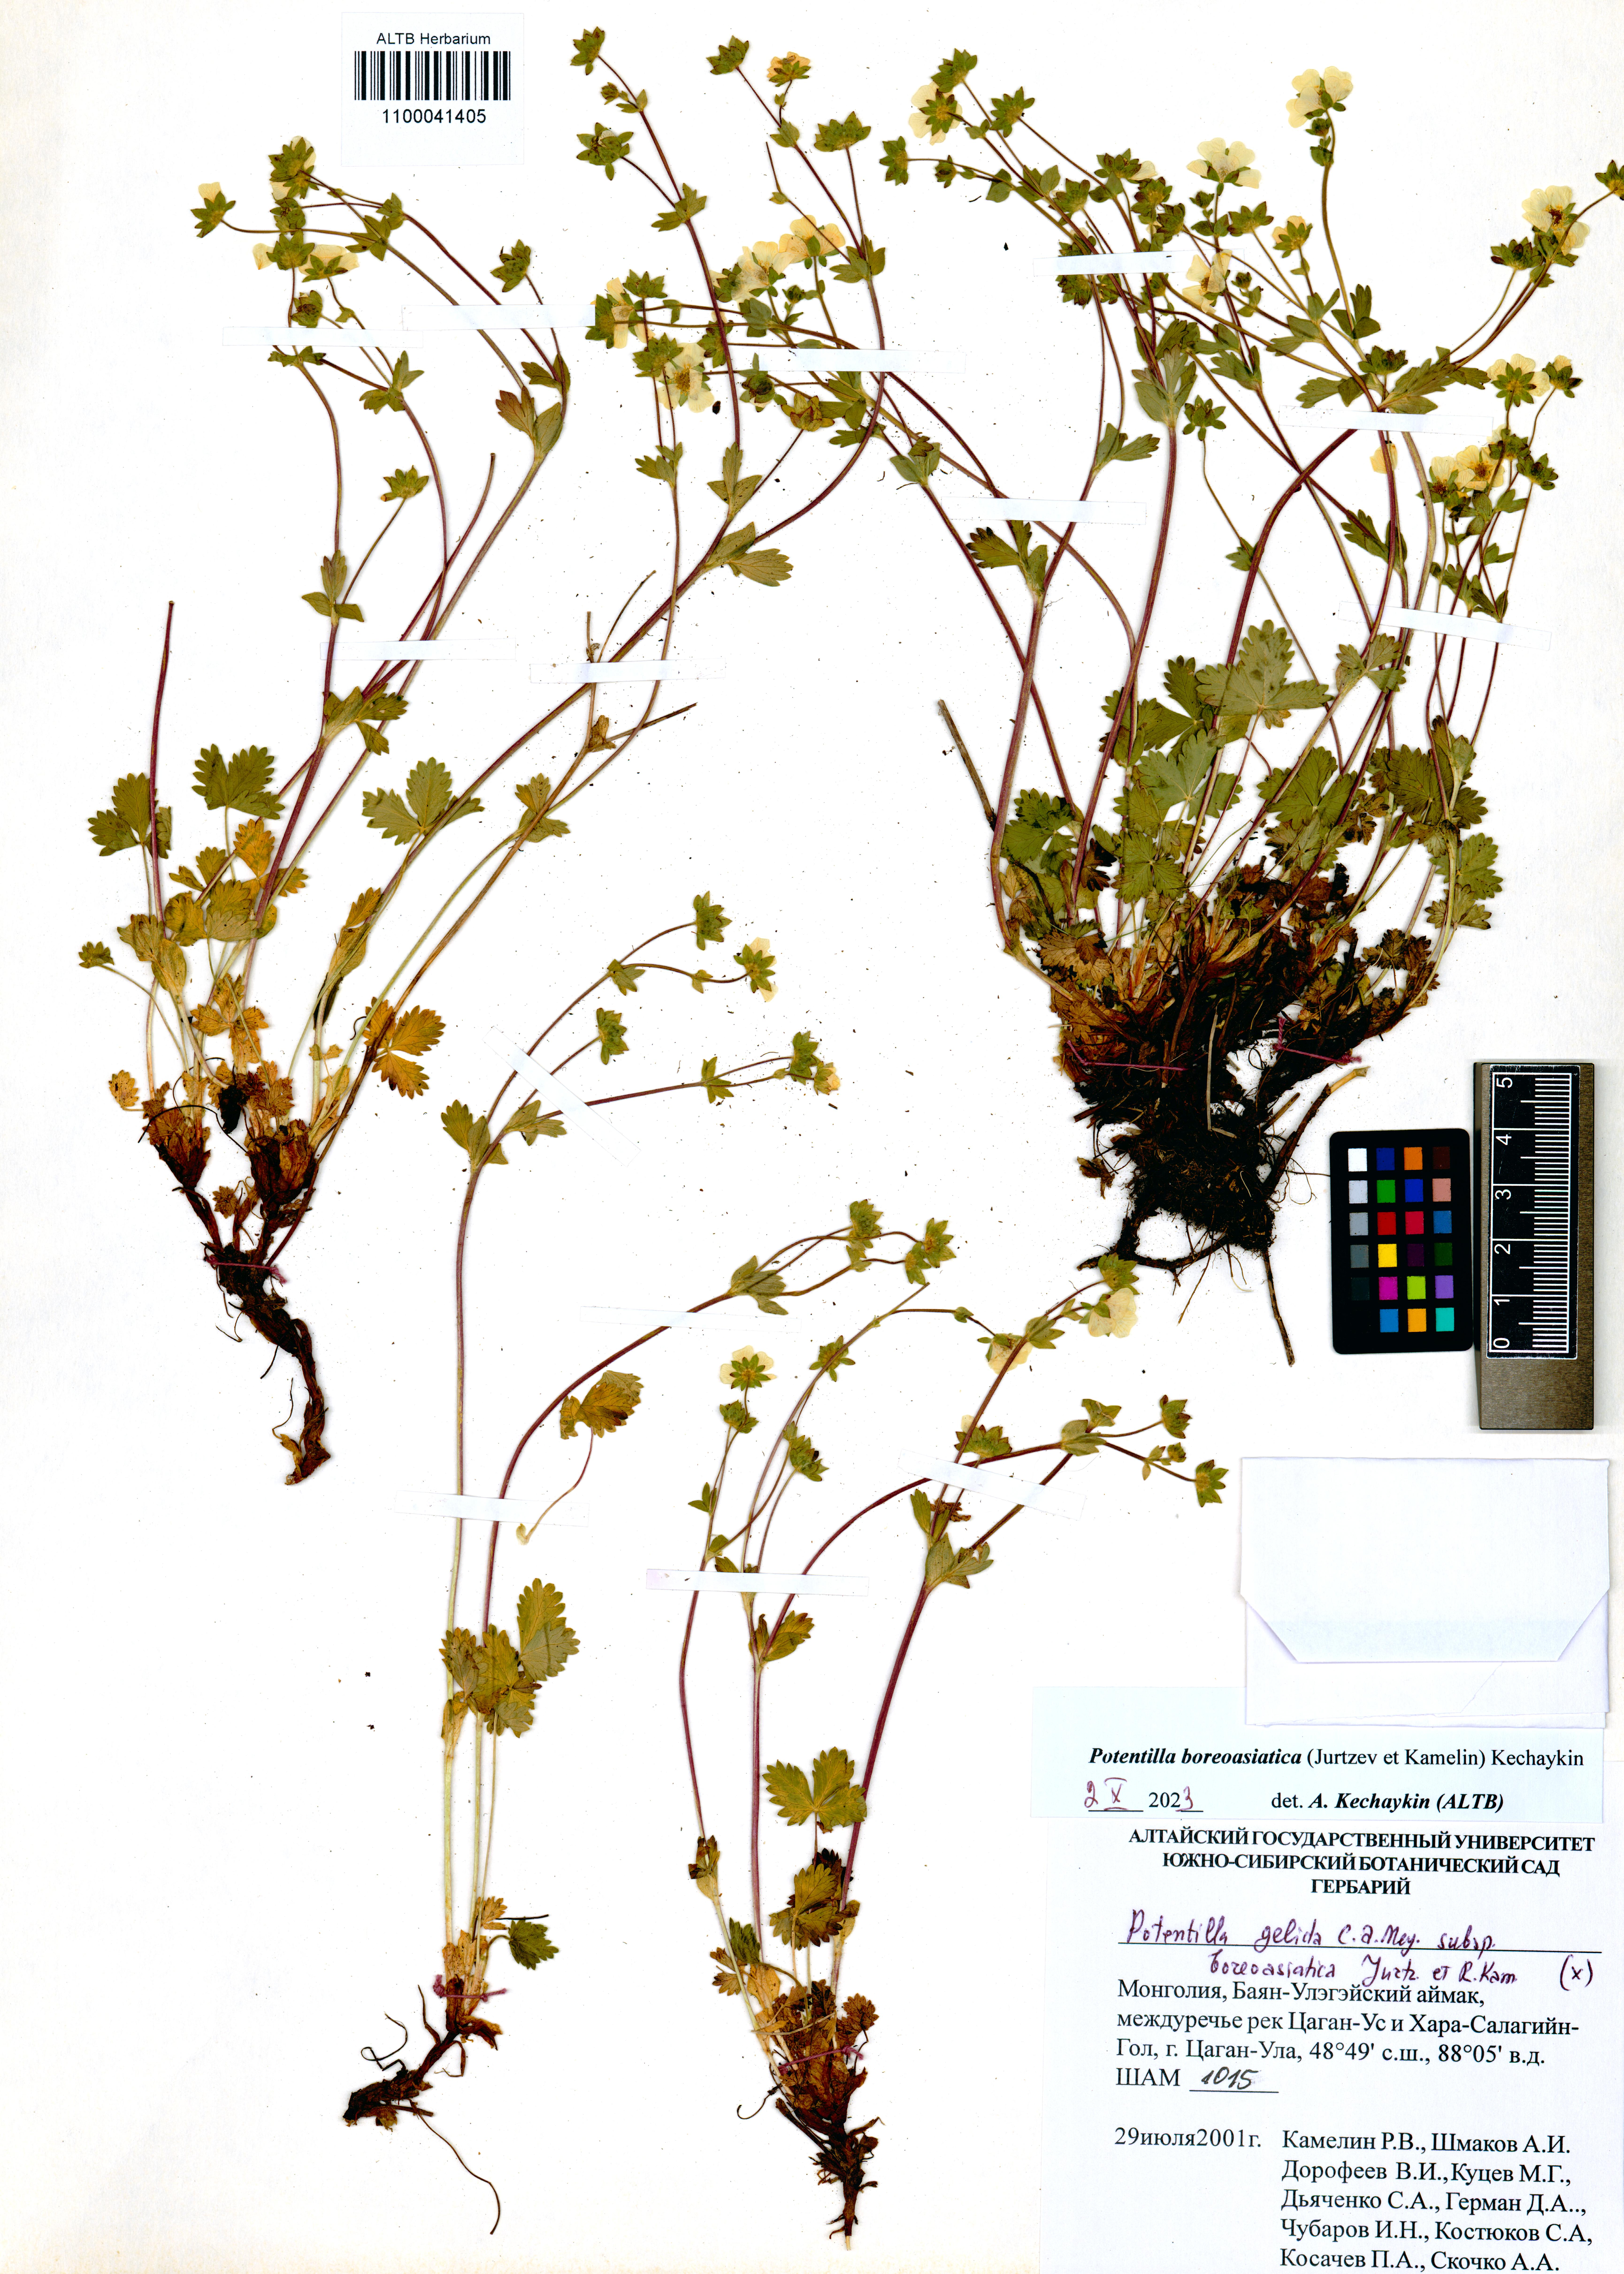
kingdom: Plantae
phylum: Tracheophyta
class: Magnoliopsida
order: Rosales
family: Rosaceae
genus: Potentilla
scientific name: Potentilla
